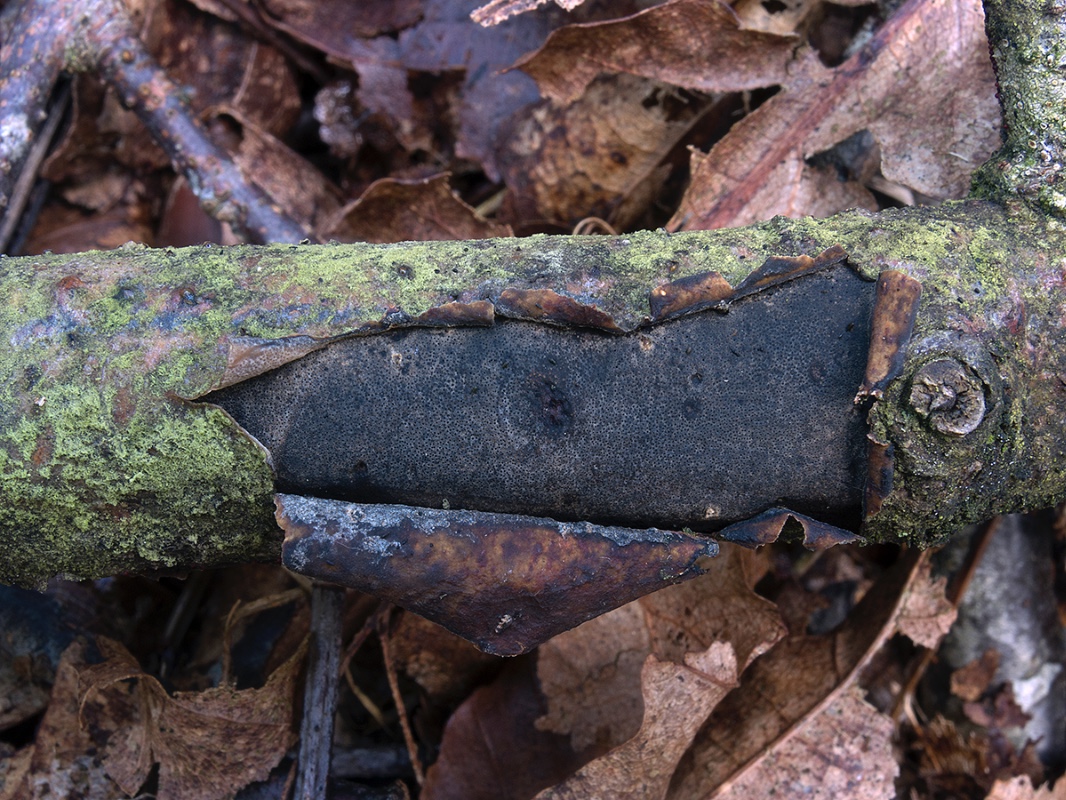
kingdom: Fungi
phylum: Ascomycota
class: Sordariomycetes
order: Xylariales
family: Diatrypaceae
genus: Diatrype
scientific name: Diatrype
